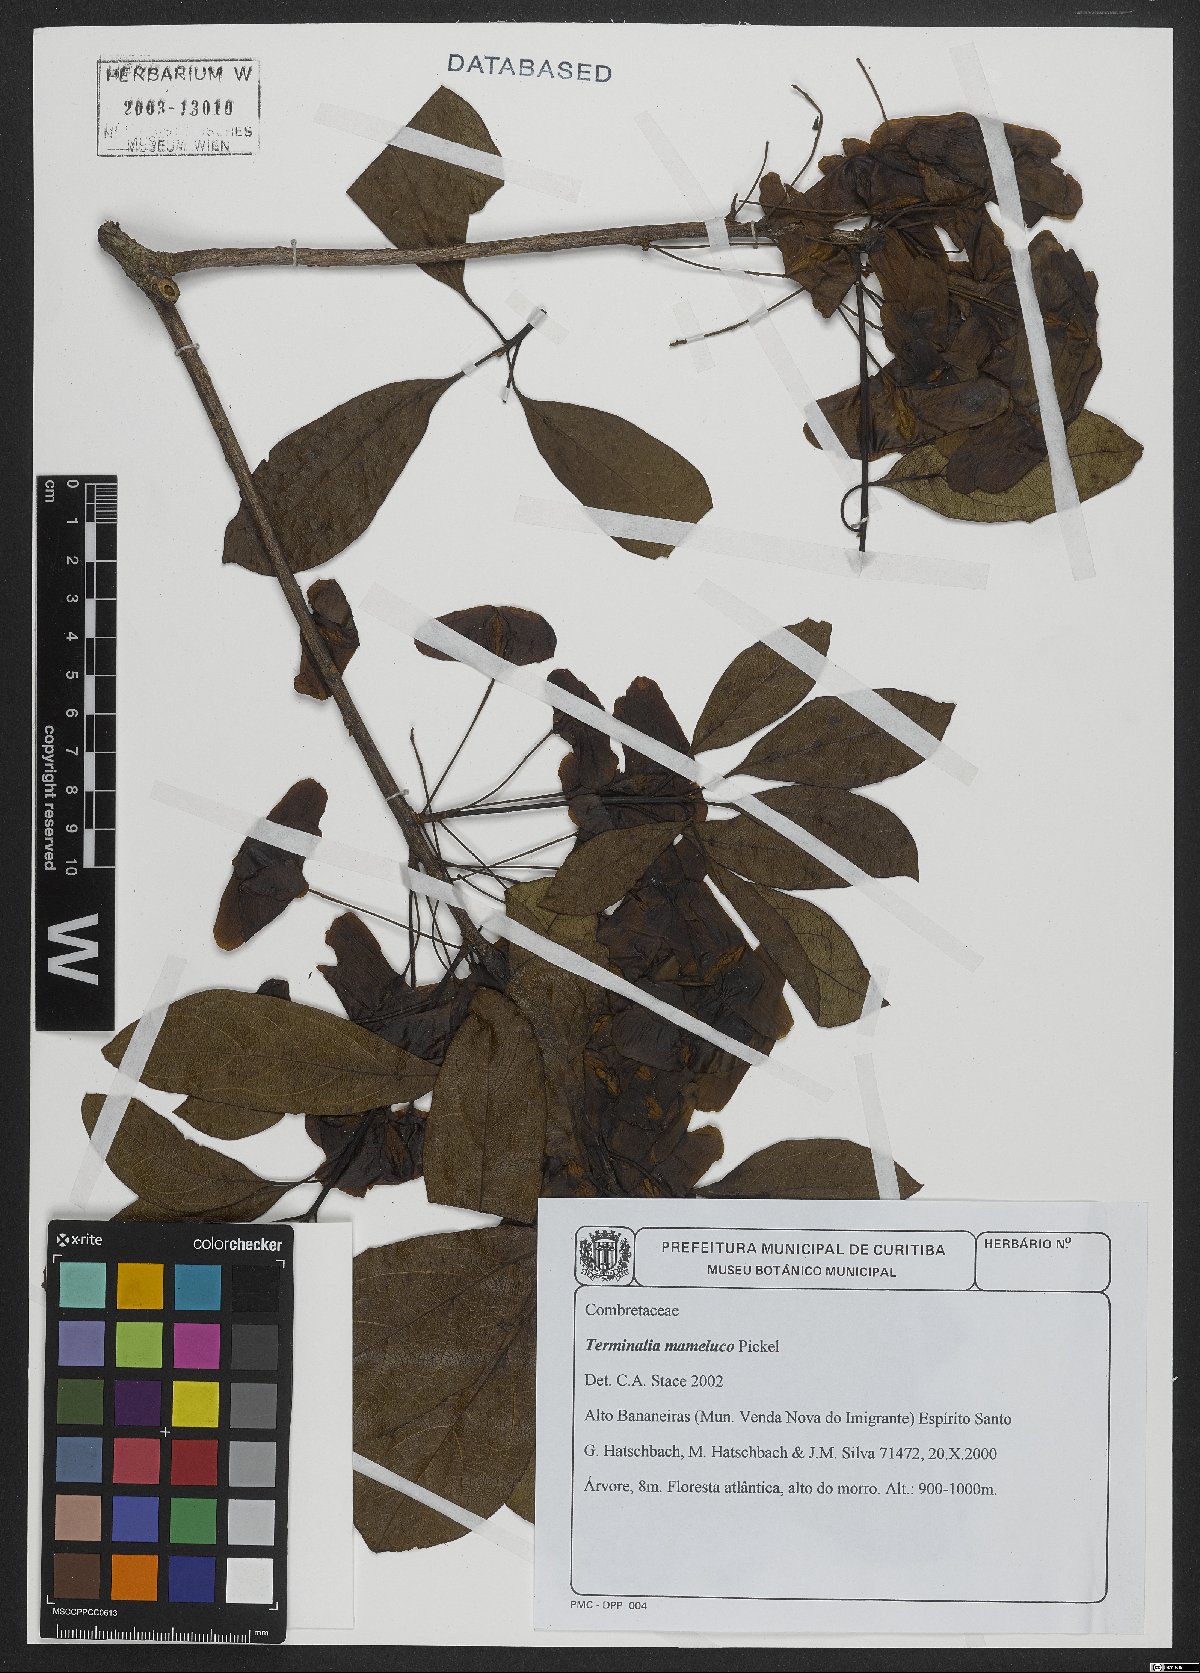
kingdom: Plantae
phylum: Tracheophyta
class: Magnoliopsida
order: Myrtales
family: Combretaceae
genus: Terminalia
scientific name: Terminalia mameluco
